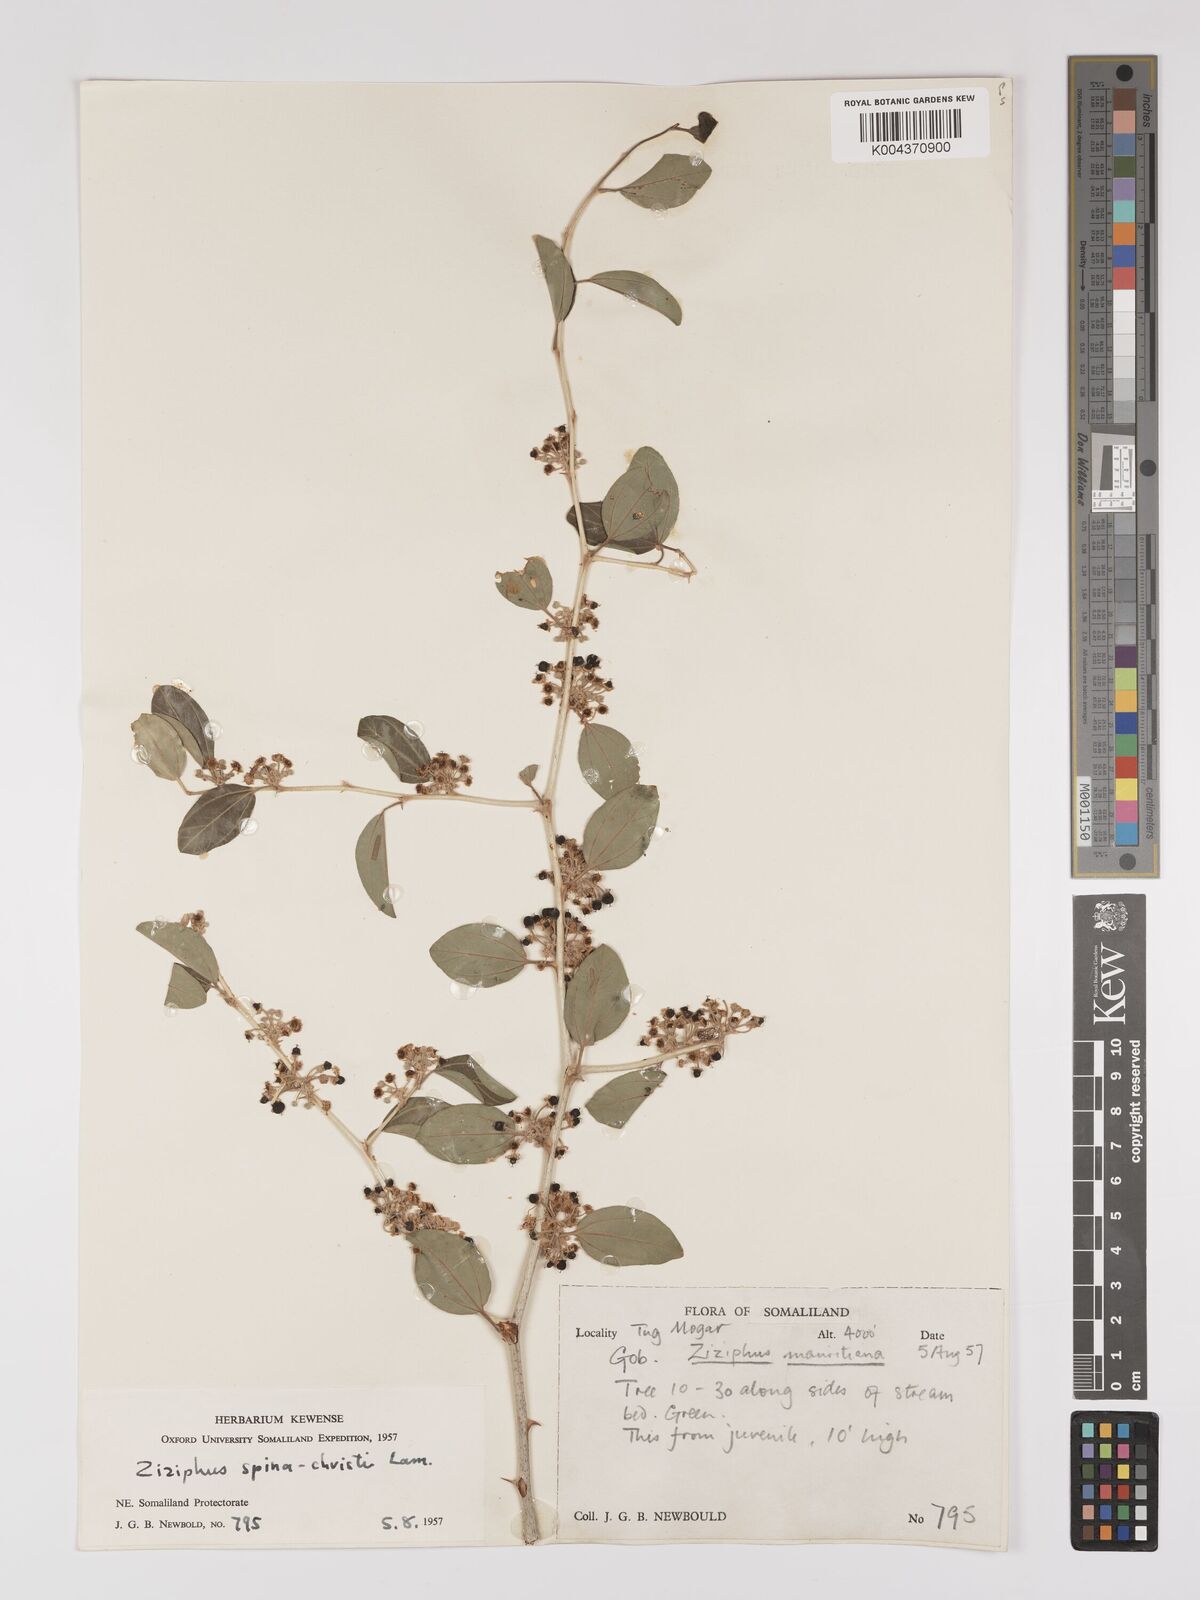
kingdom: Plantae
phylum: Tracheophyta
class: Magnoliopsida
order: Rosales
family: Rhamnaceae
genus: Ziziphus
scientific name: Ziziphus spina-christi
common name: Syrian christ-thorn
